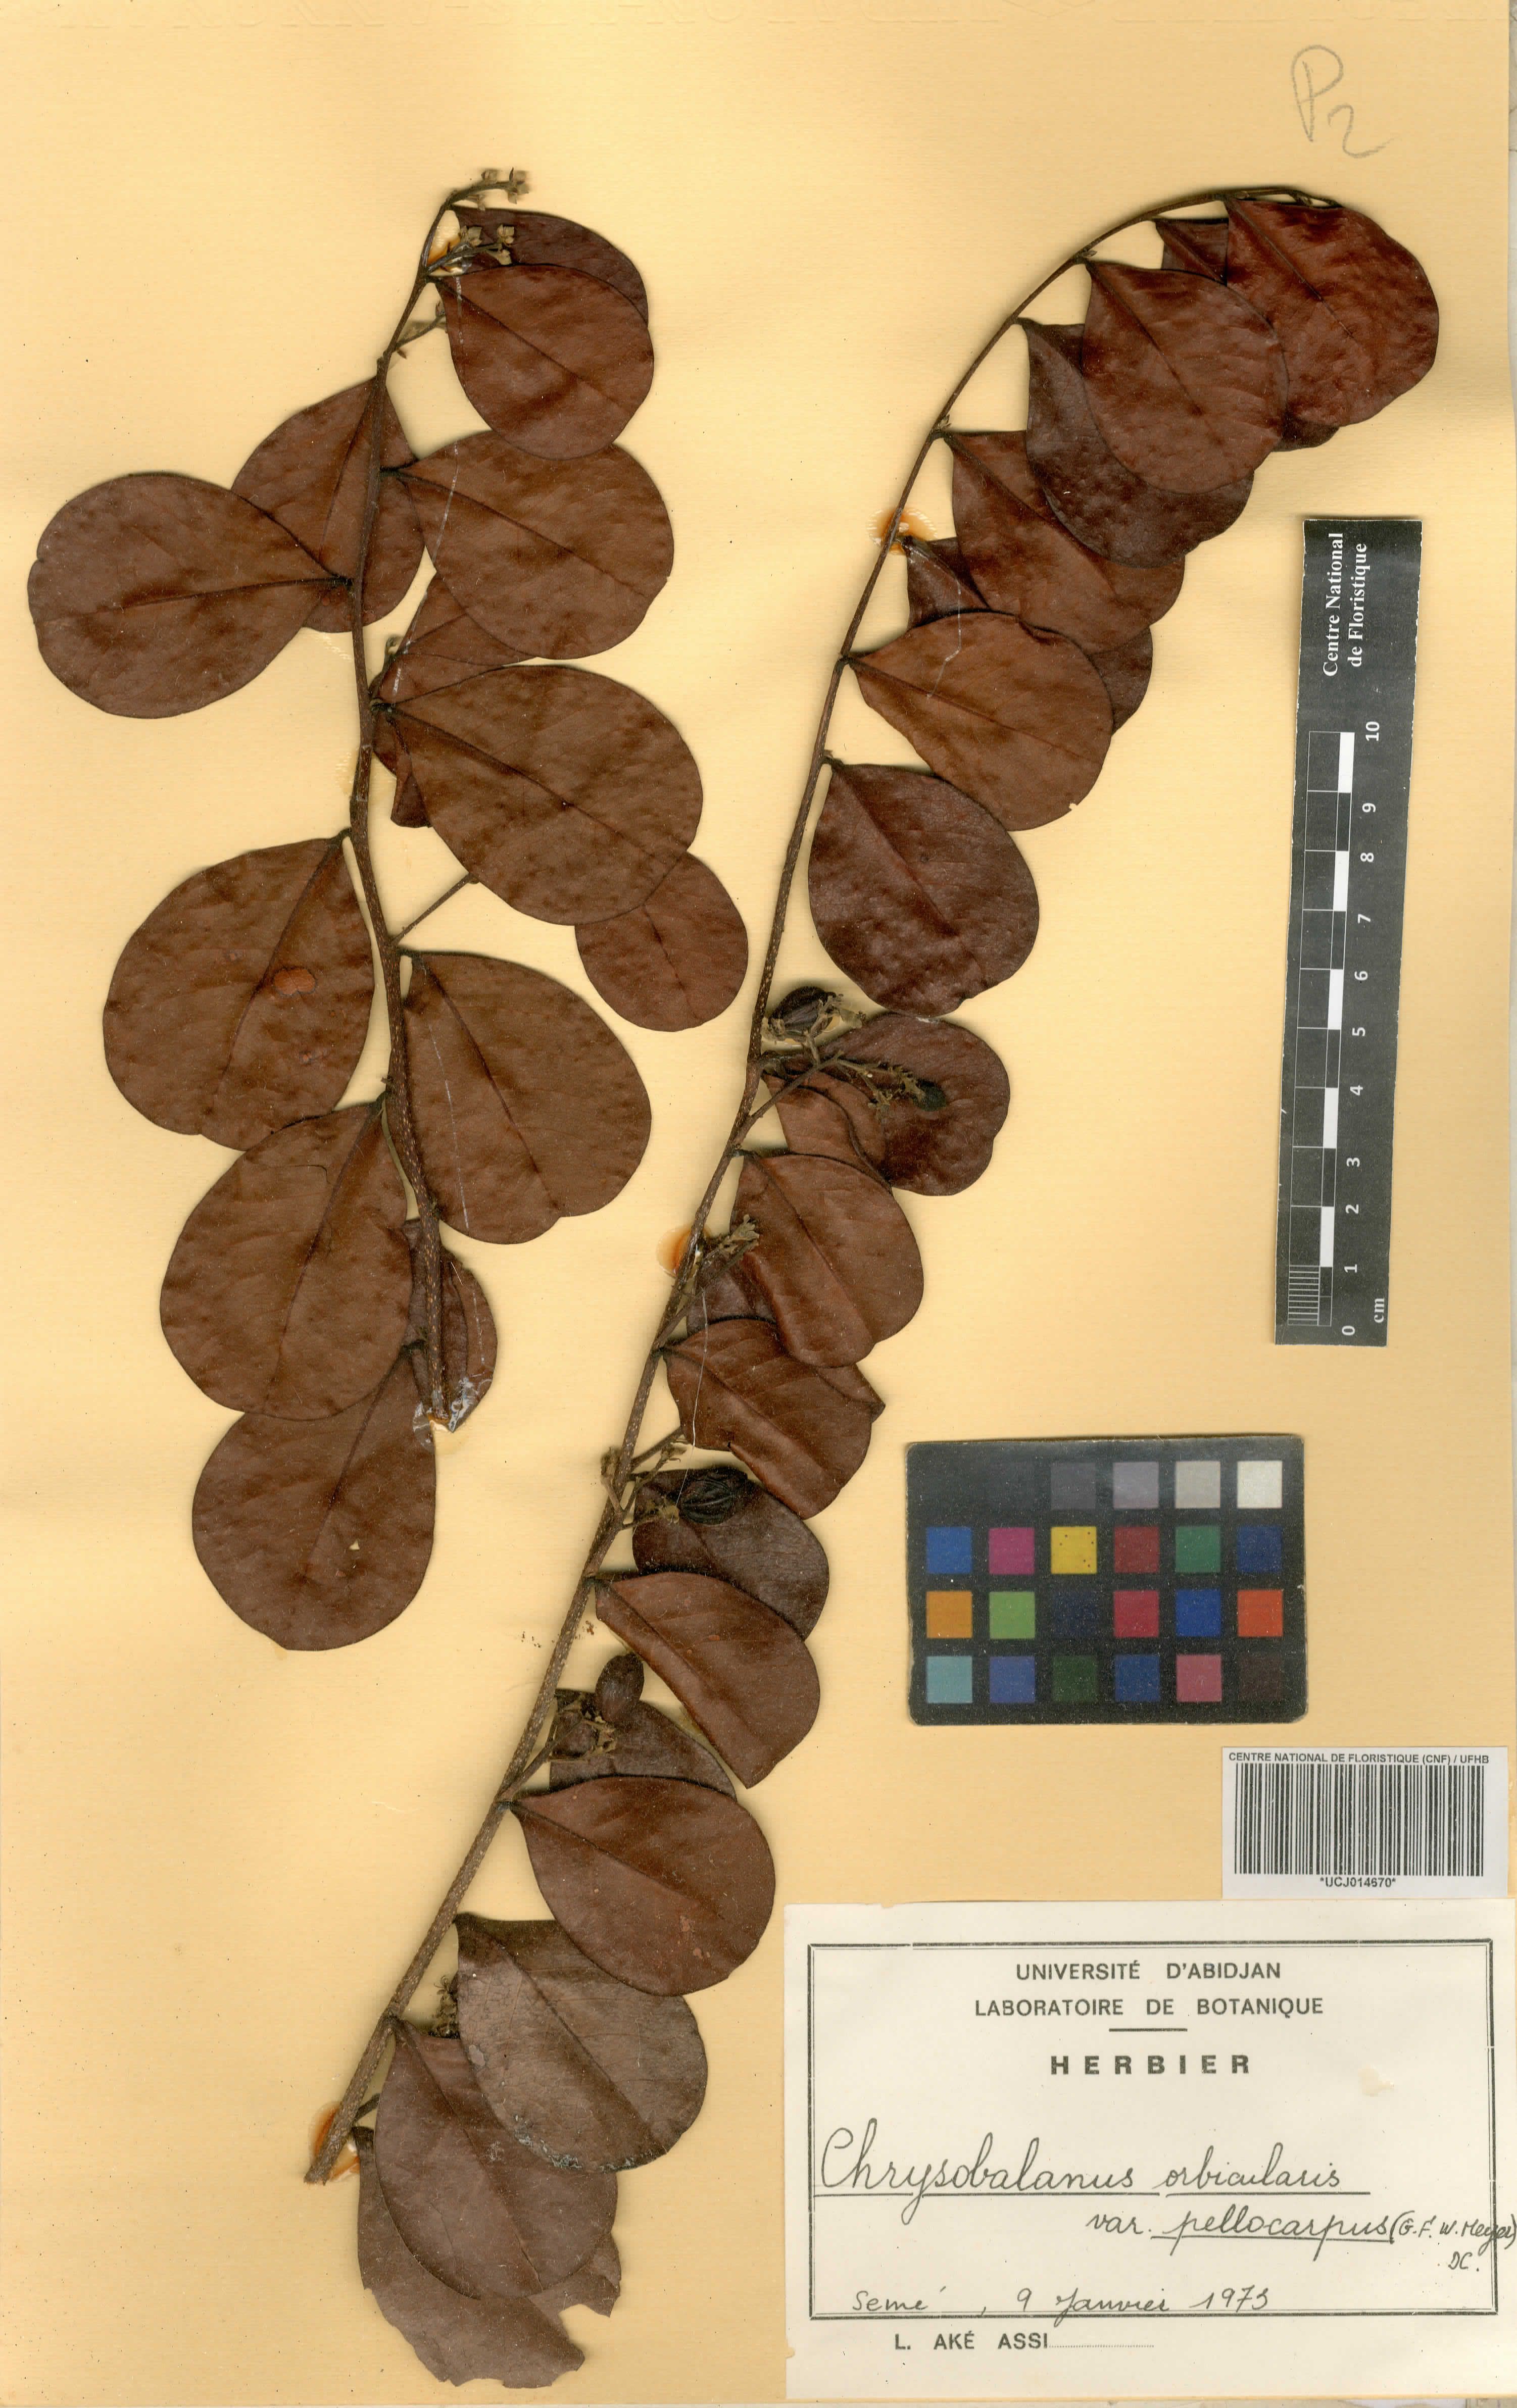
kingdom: Plantae
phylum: Tracheophyta
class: Magnoliopsida
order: Malpighiales
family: Chrysobalanaceae
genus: Chrysobalanus
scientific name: Chrysobalanus icaco
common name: Coco plum
